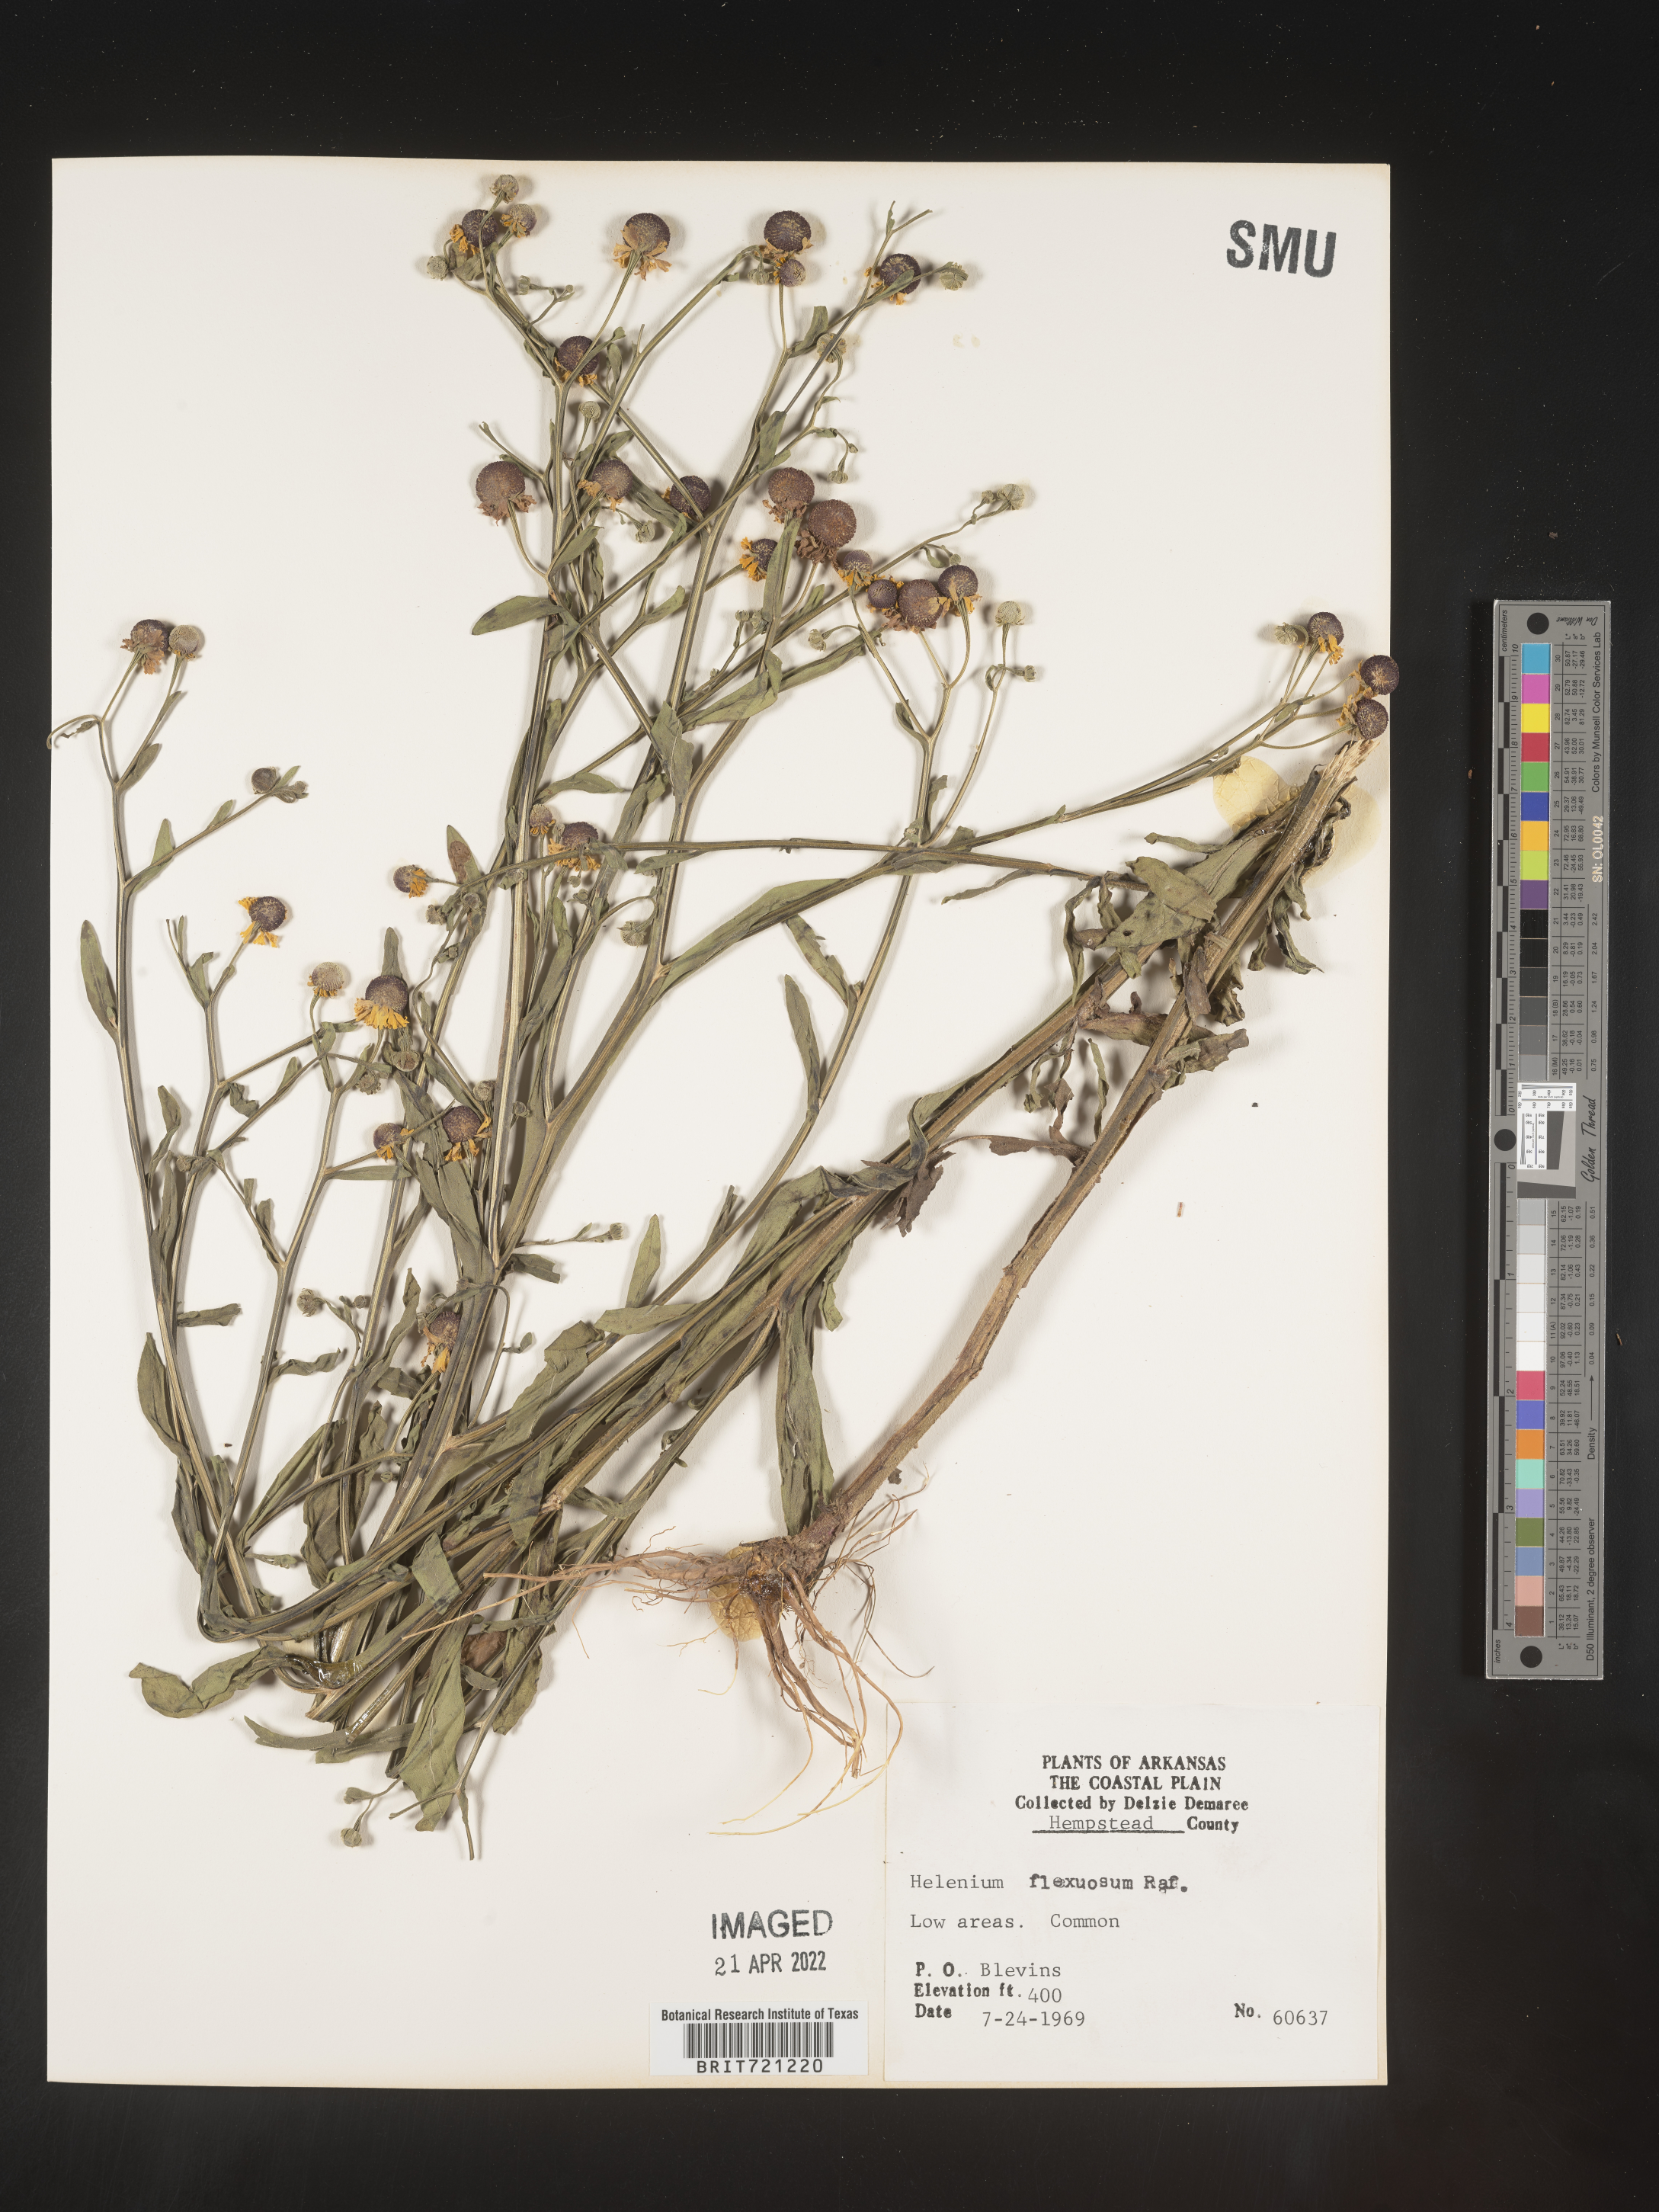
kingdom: Plantae
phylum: Tracheophyta
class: Magnoliopsida
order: Asterales
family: Asteraceae
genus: Helenium
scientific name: Helenium flexuosum
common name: Naked-flowered sneezeweed
